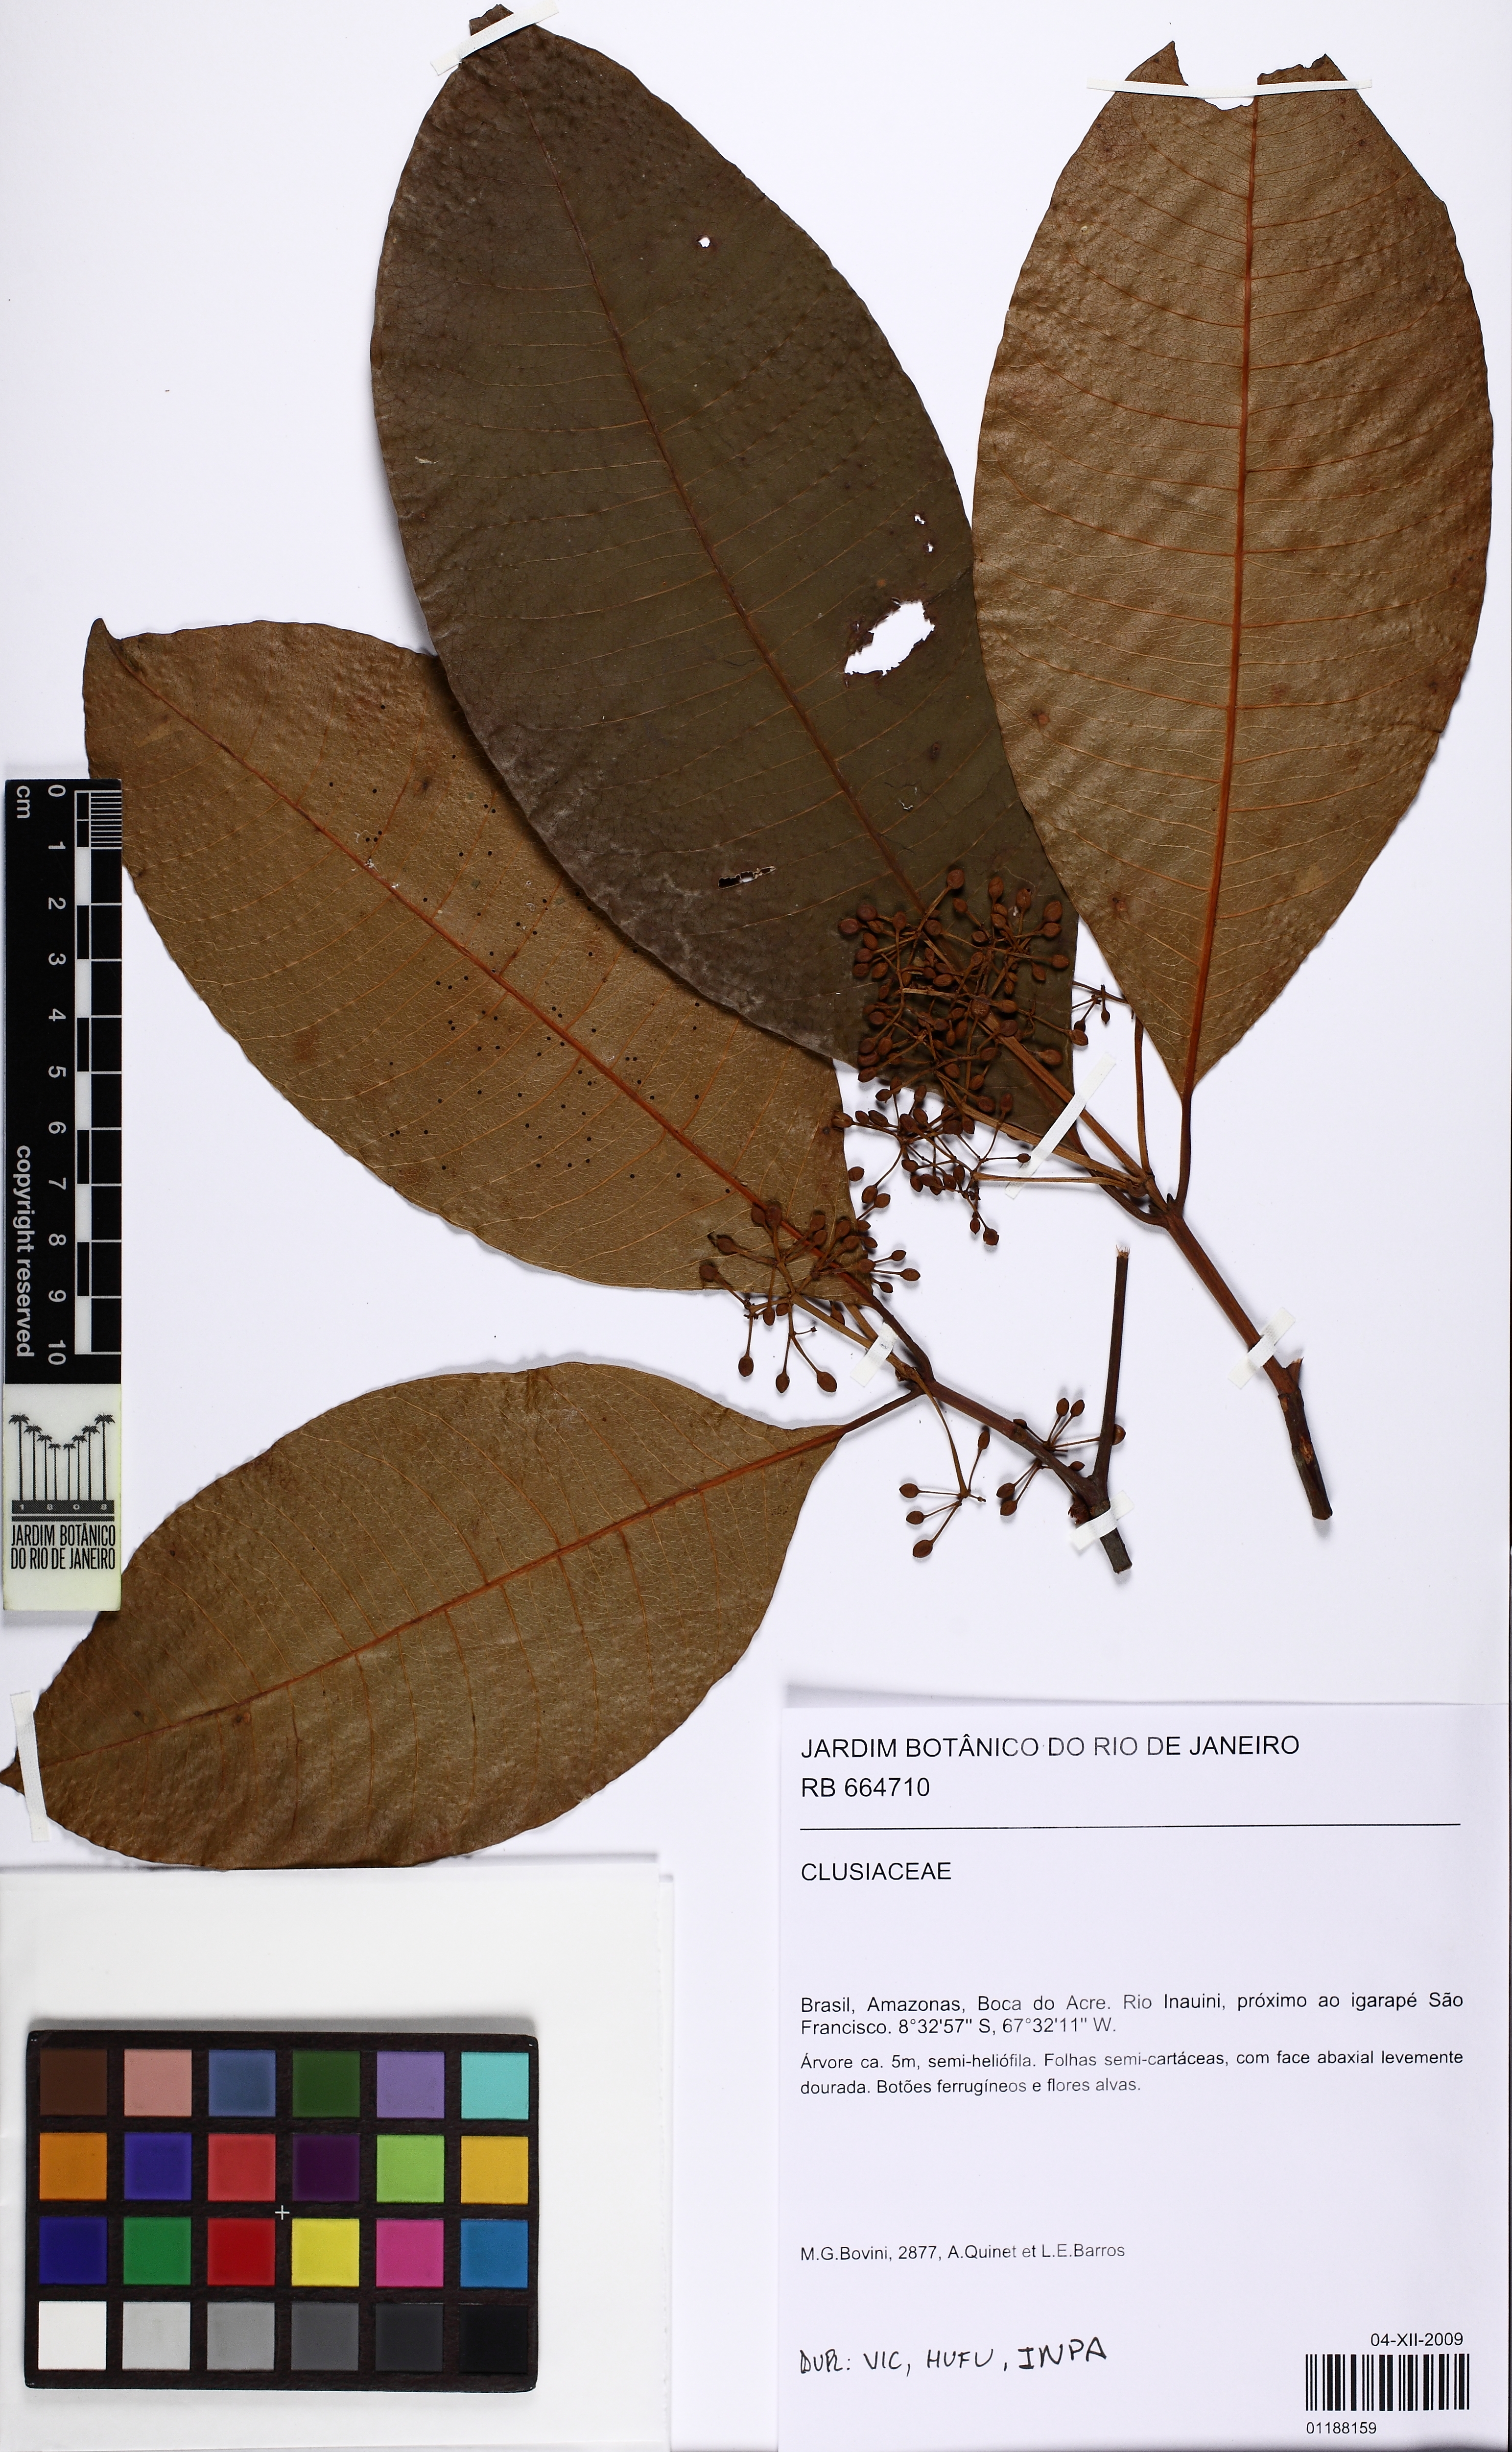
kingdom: Plantae
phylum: Tracheophyta
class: Magnoliopsida
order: Malpighiales
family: Clusiaceae
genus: Tovomita
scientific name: Tovomita umbellata
